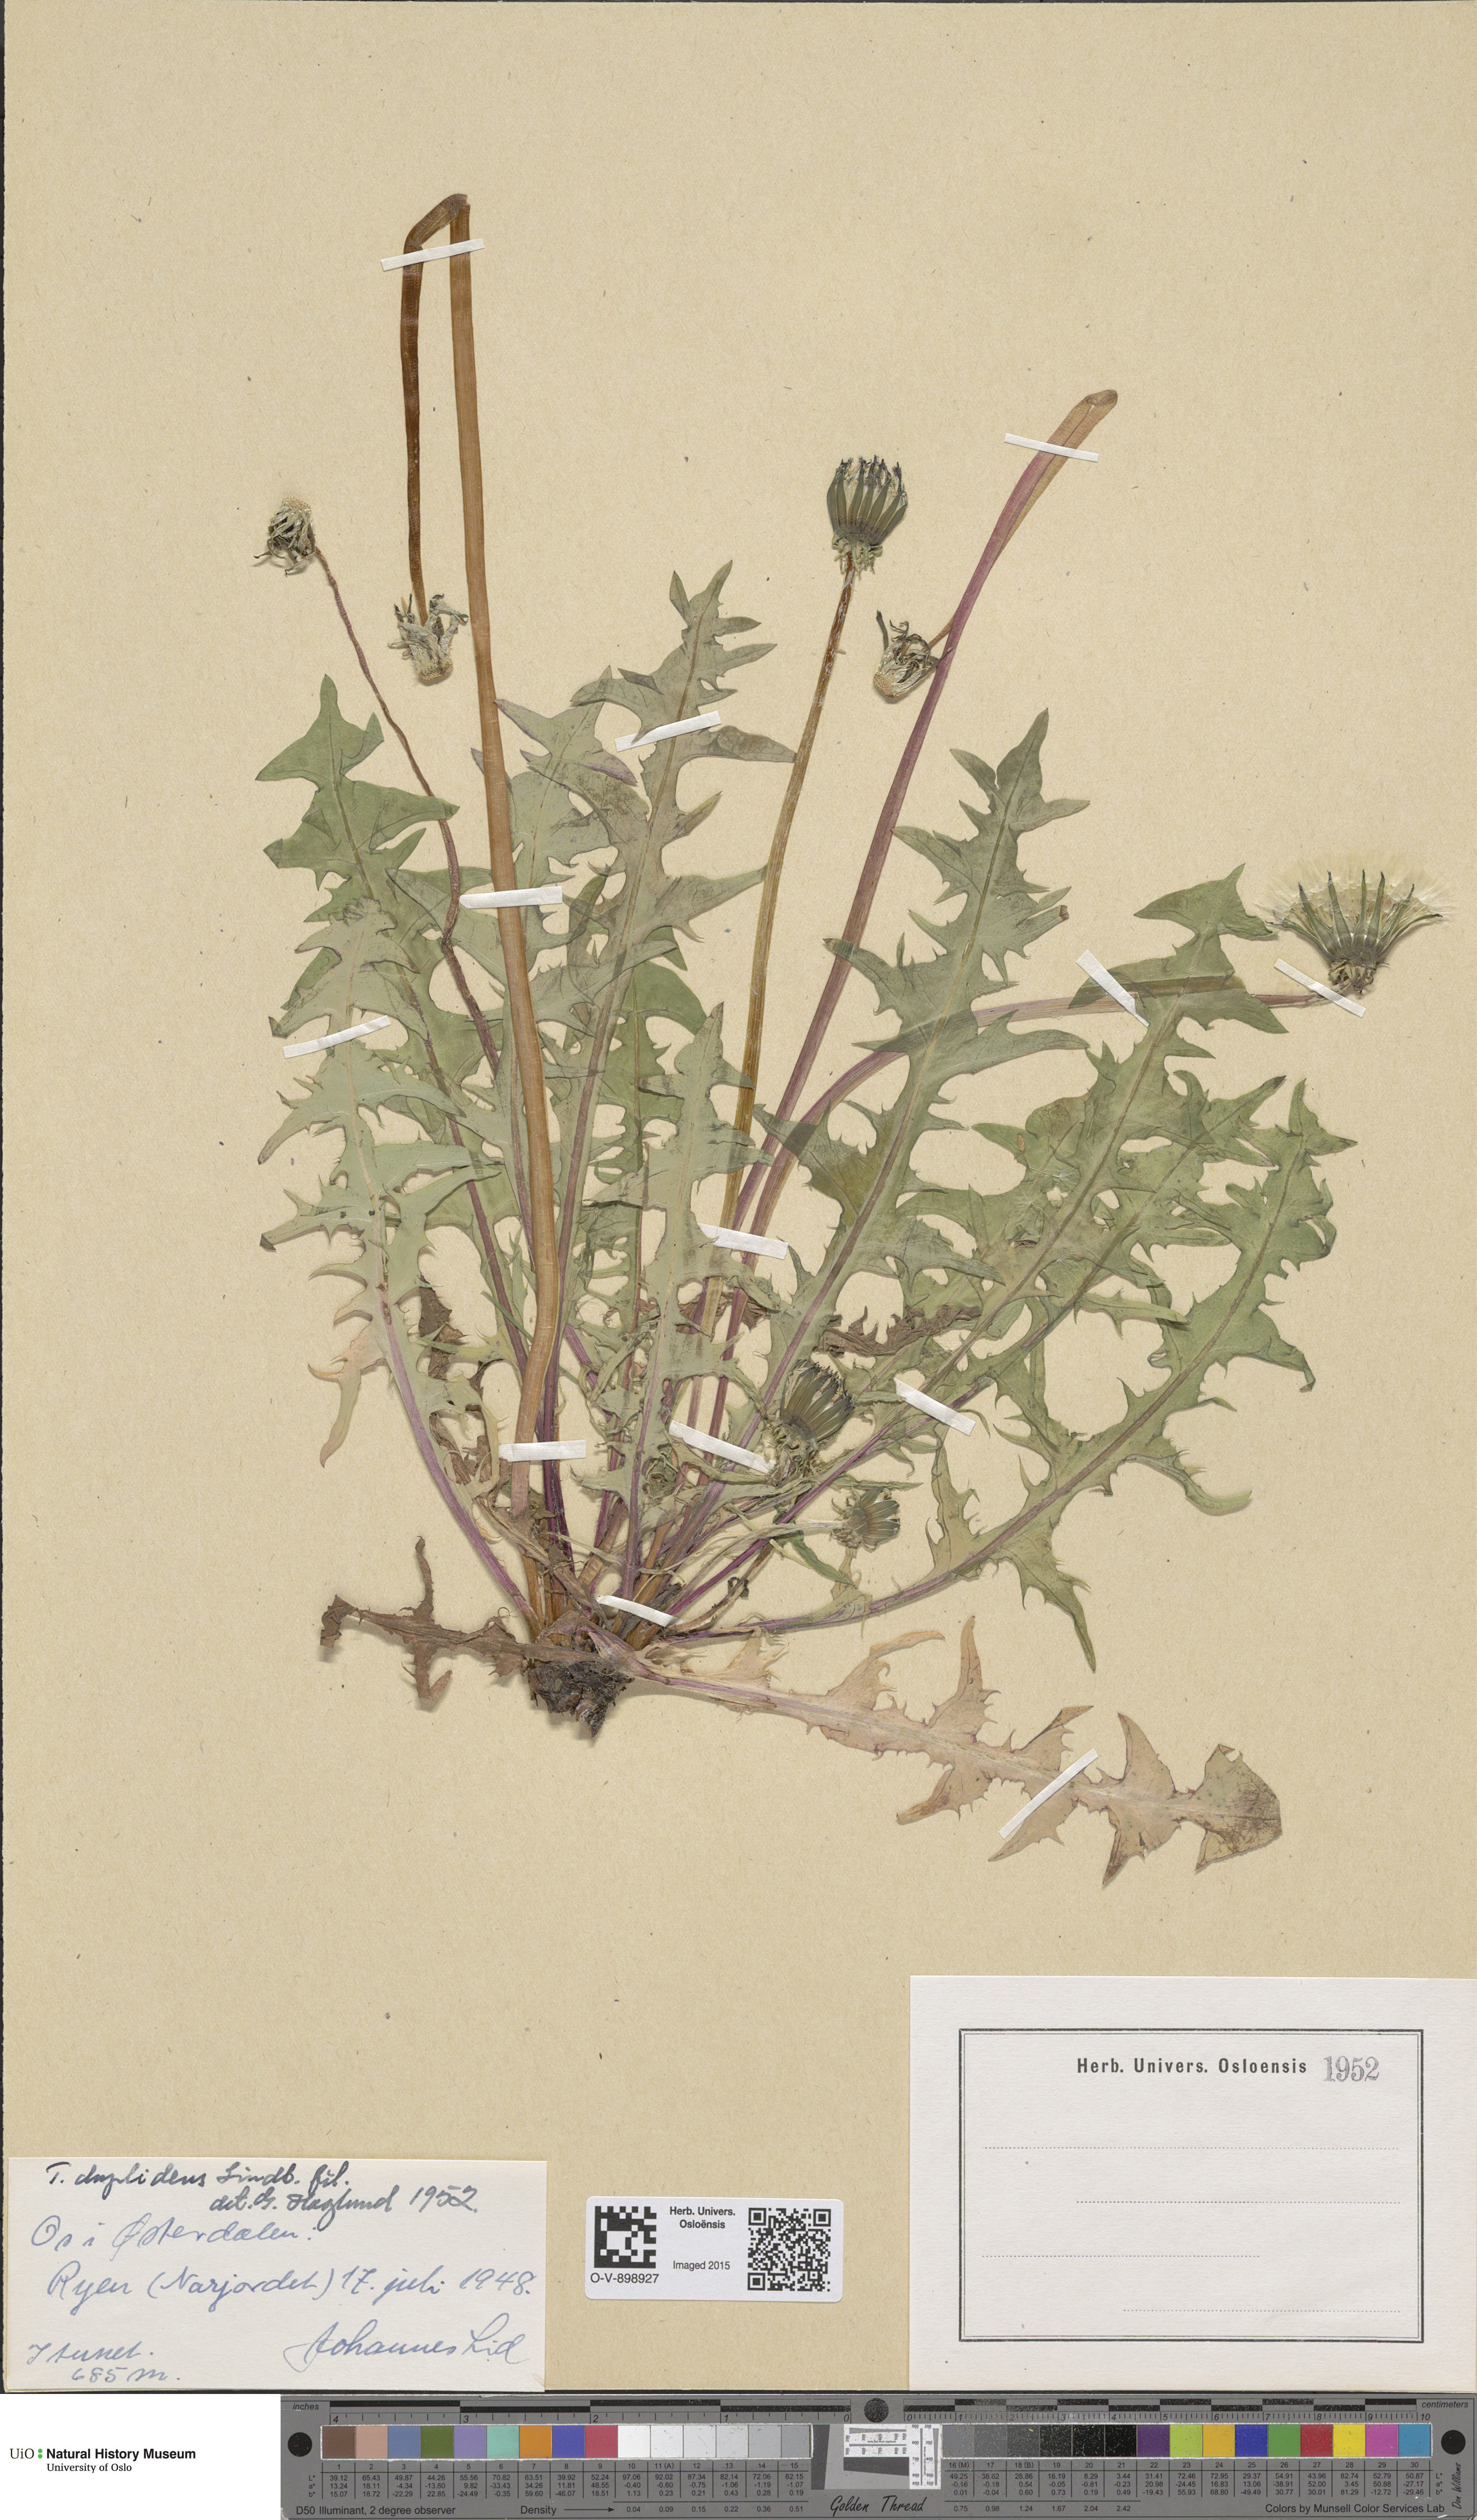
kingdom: Plantae
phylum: Tracheophyta
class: Magnoliopsida
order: Asterales
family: Asteraceae
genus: Taraxacum
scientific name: Taraxacum ostenfeldii
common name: Ostenfeld's dandelion
